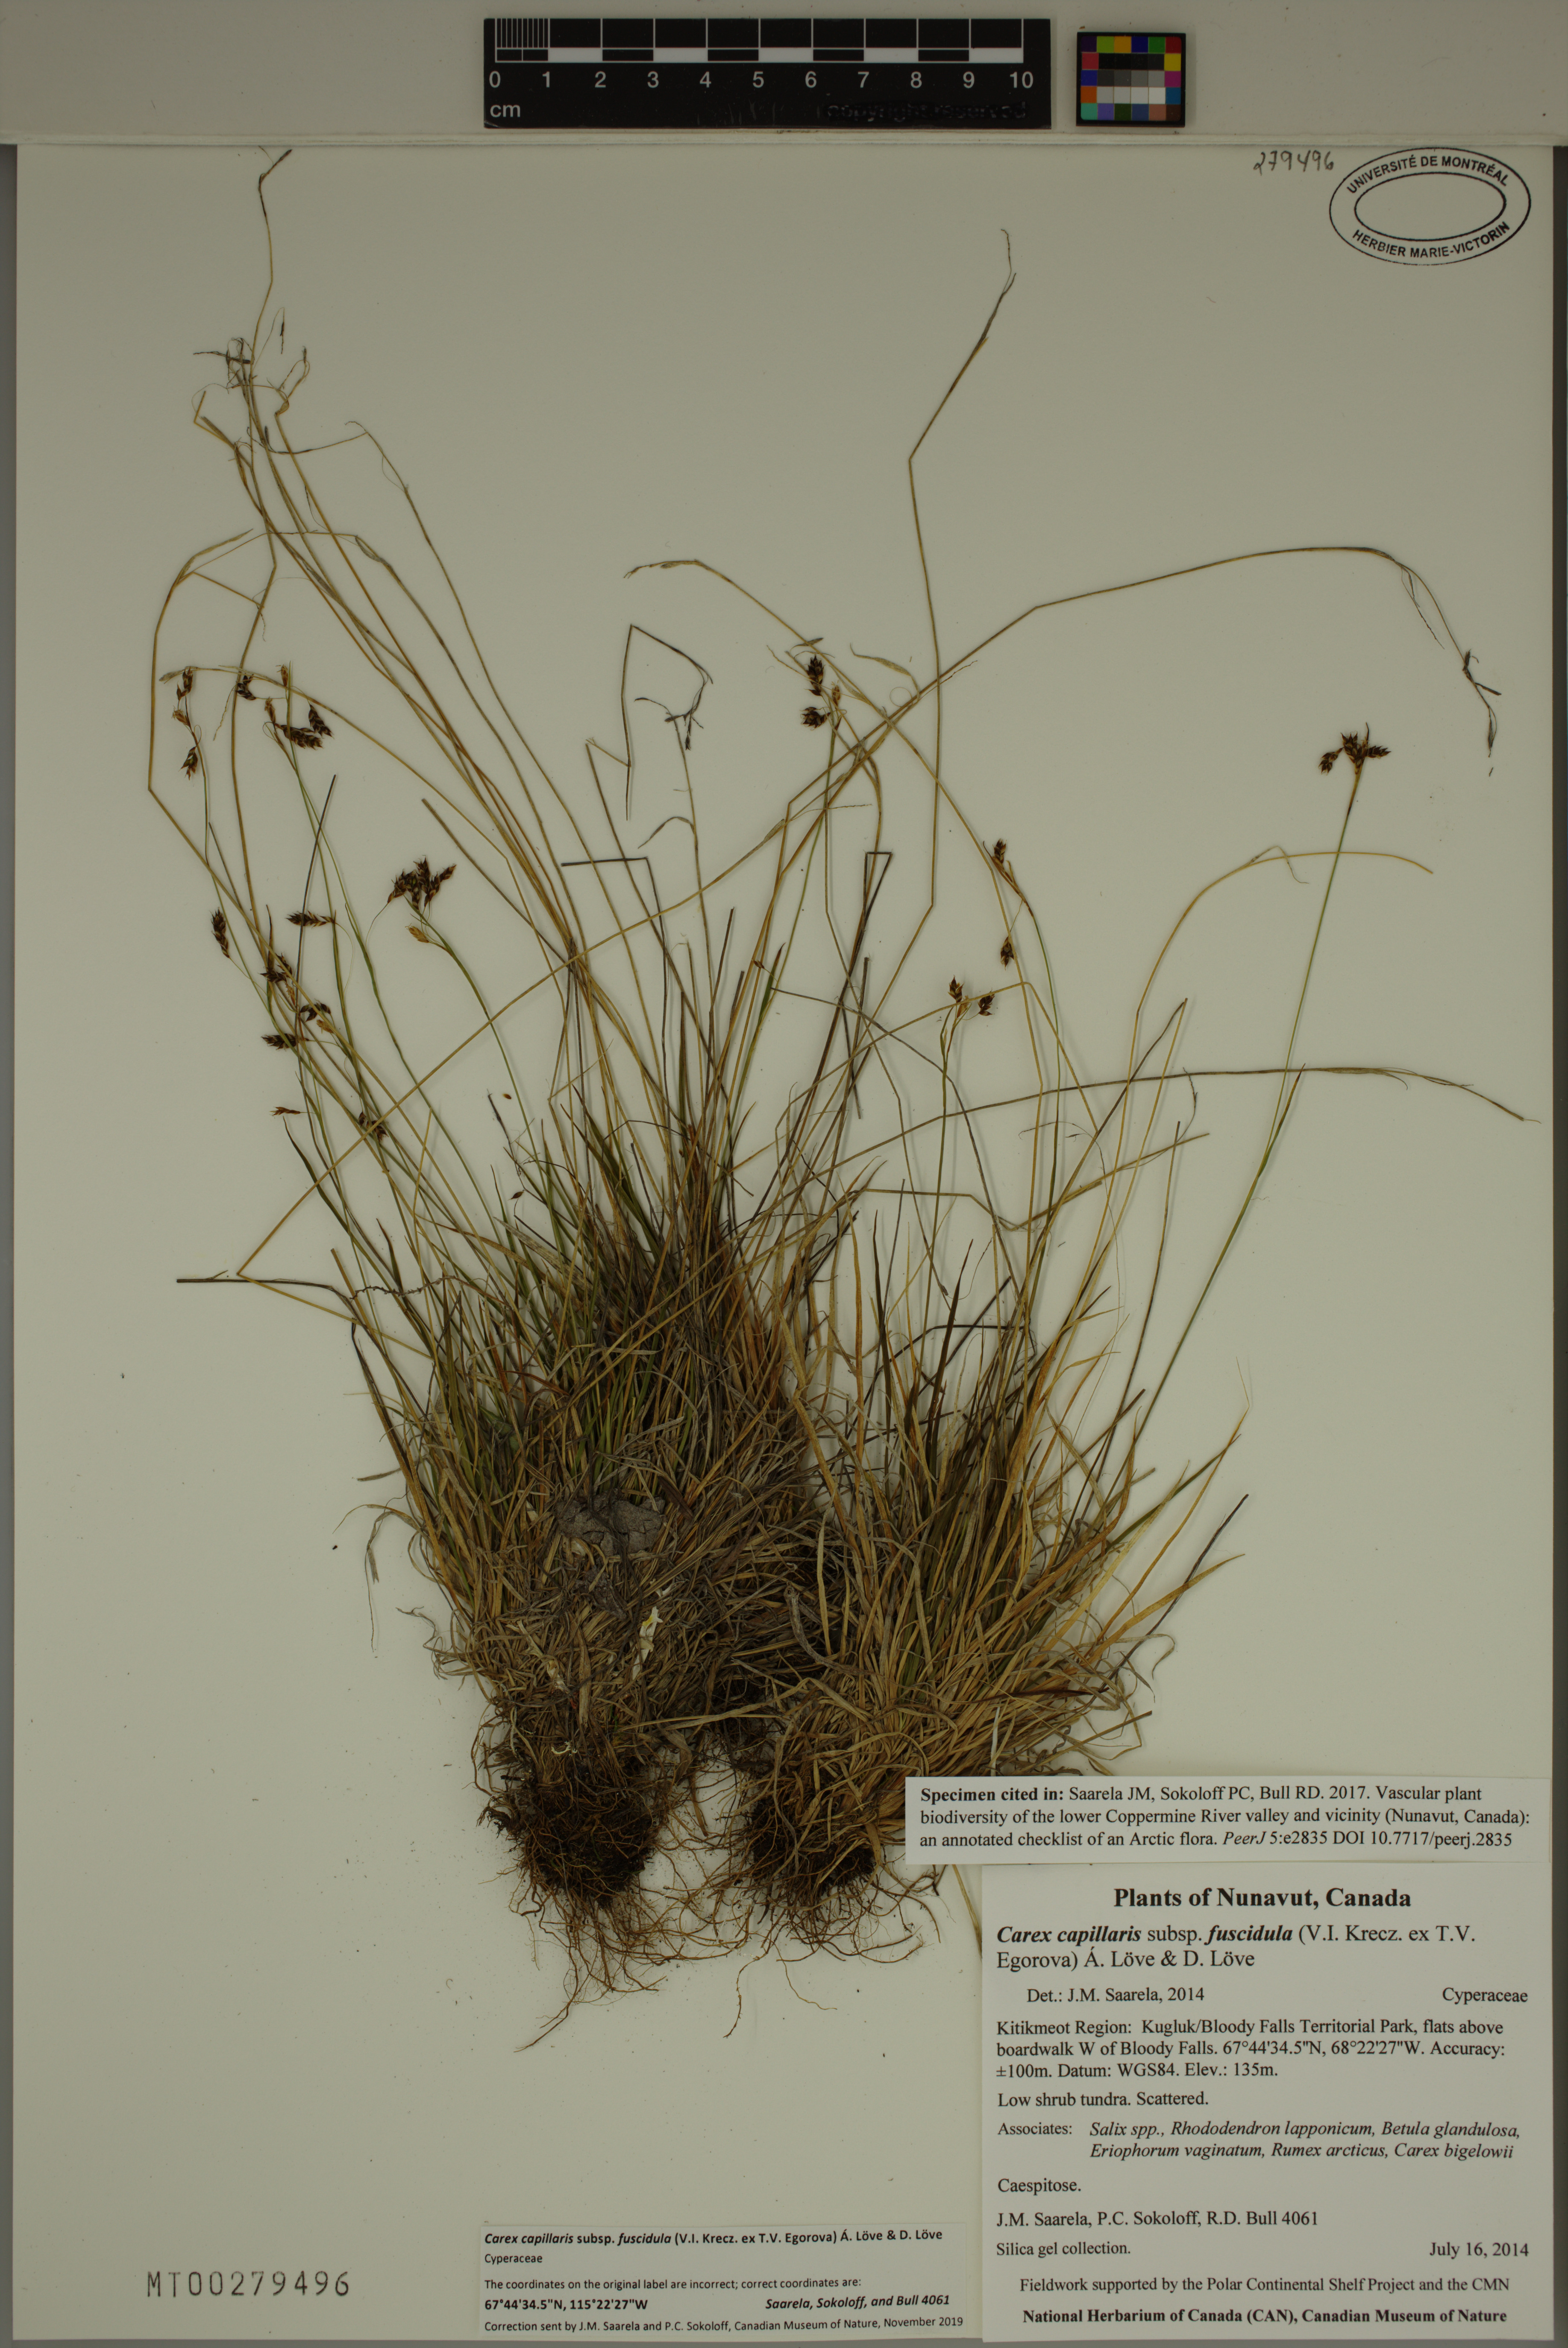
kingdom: Plantae
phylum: Tracheophyta
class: Liliopsida
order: Poales
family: Cyperaceae
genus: Carex
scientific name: Carex capillaris
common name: Hair sedge
